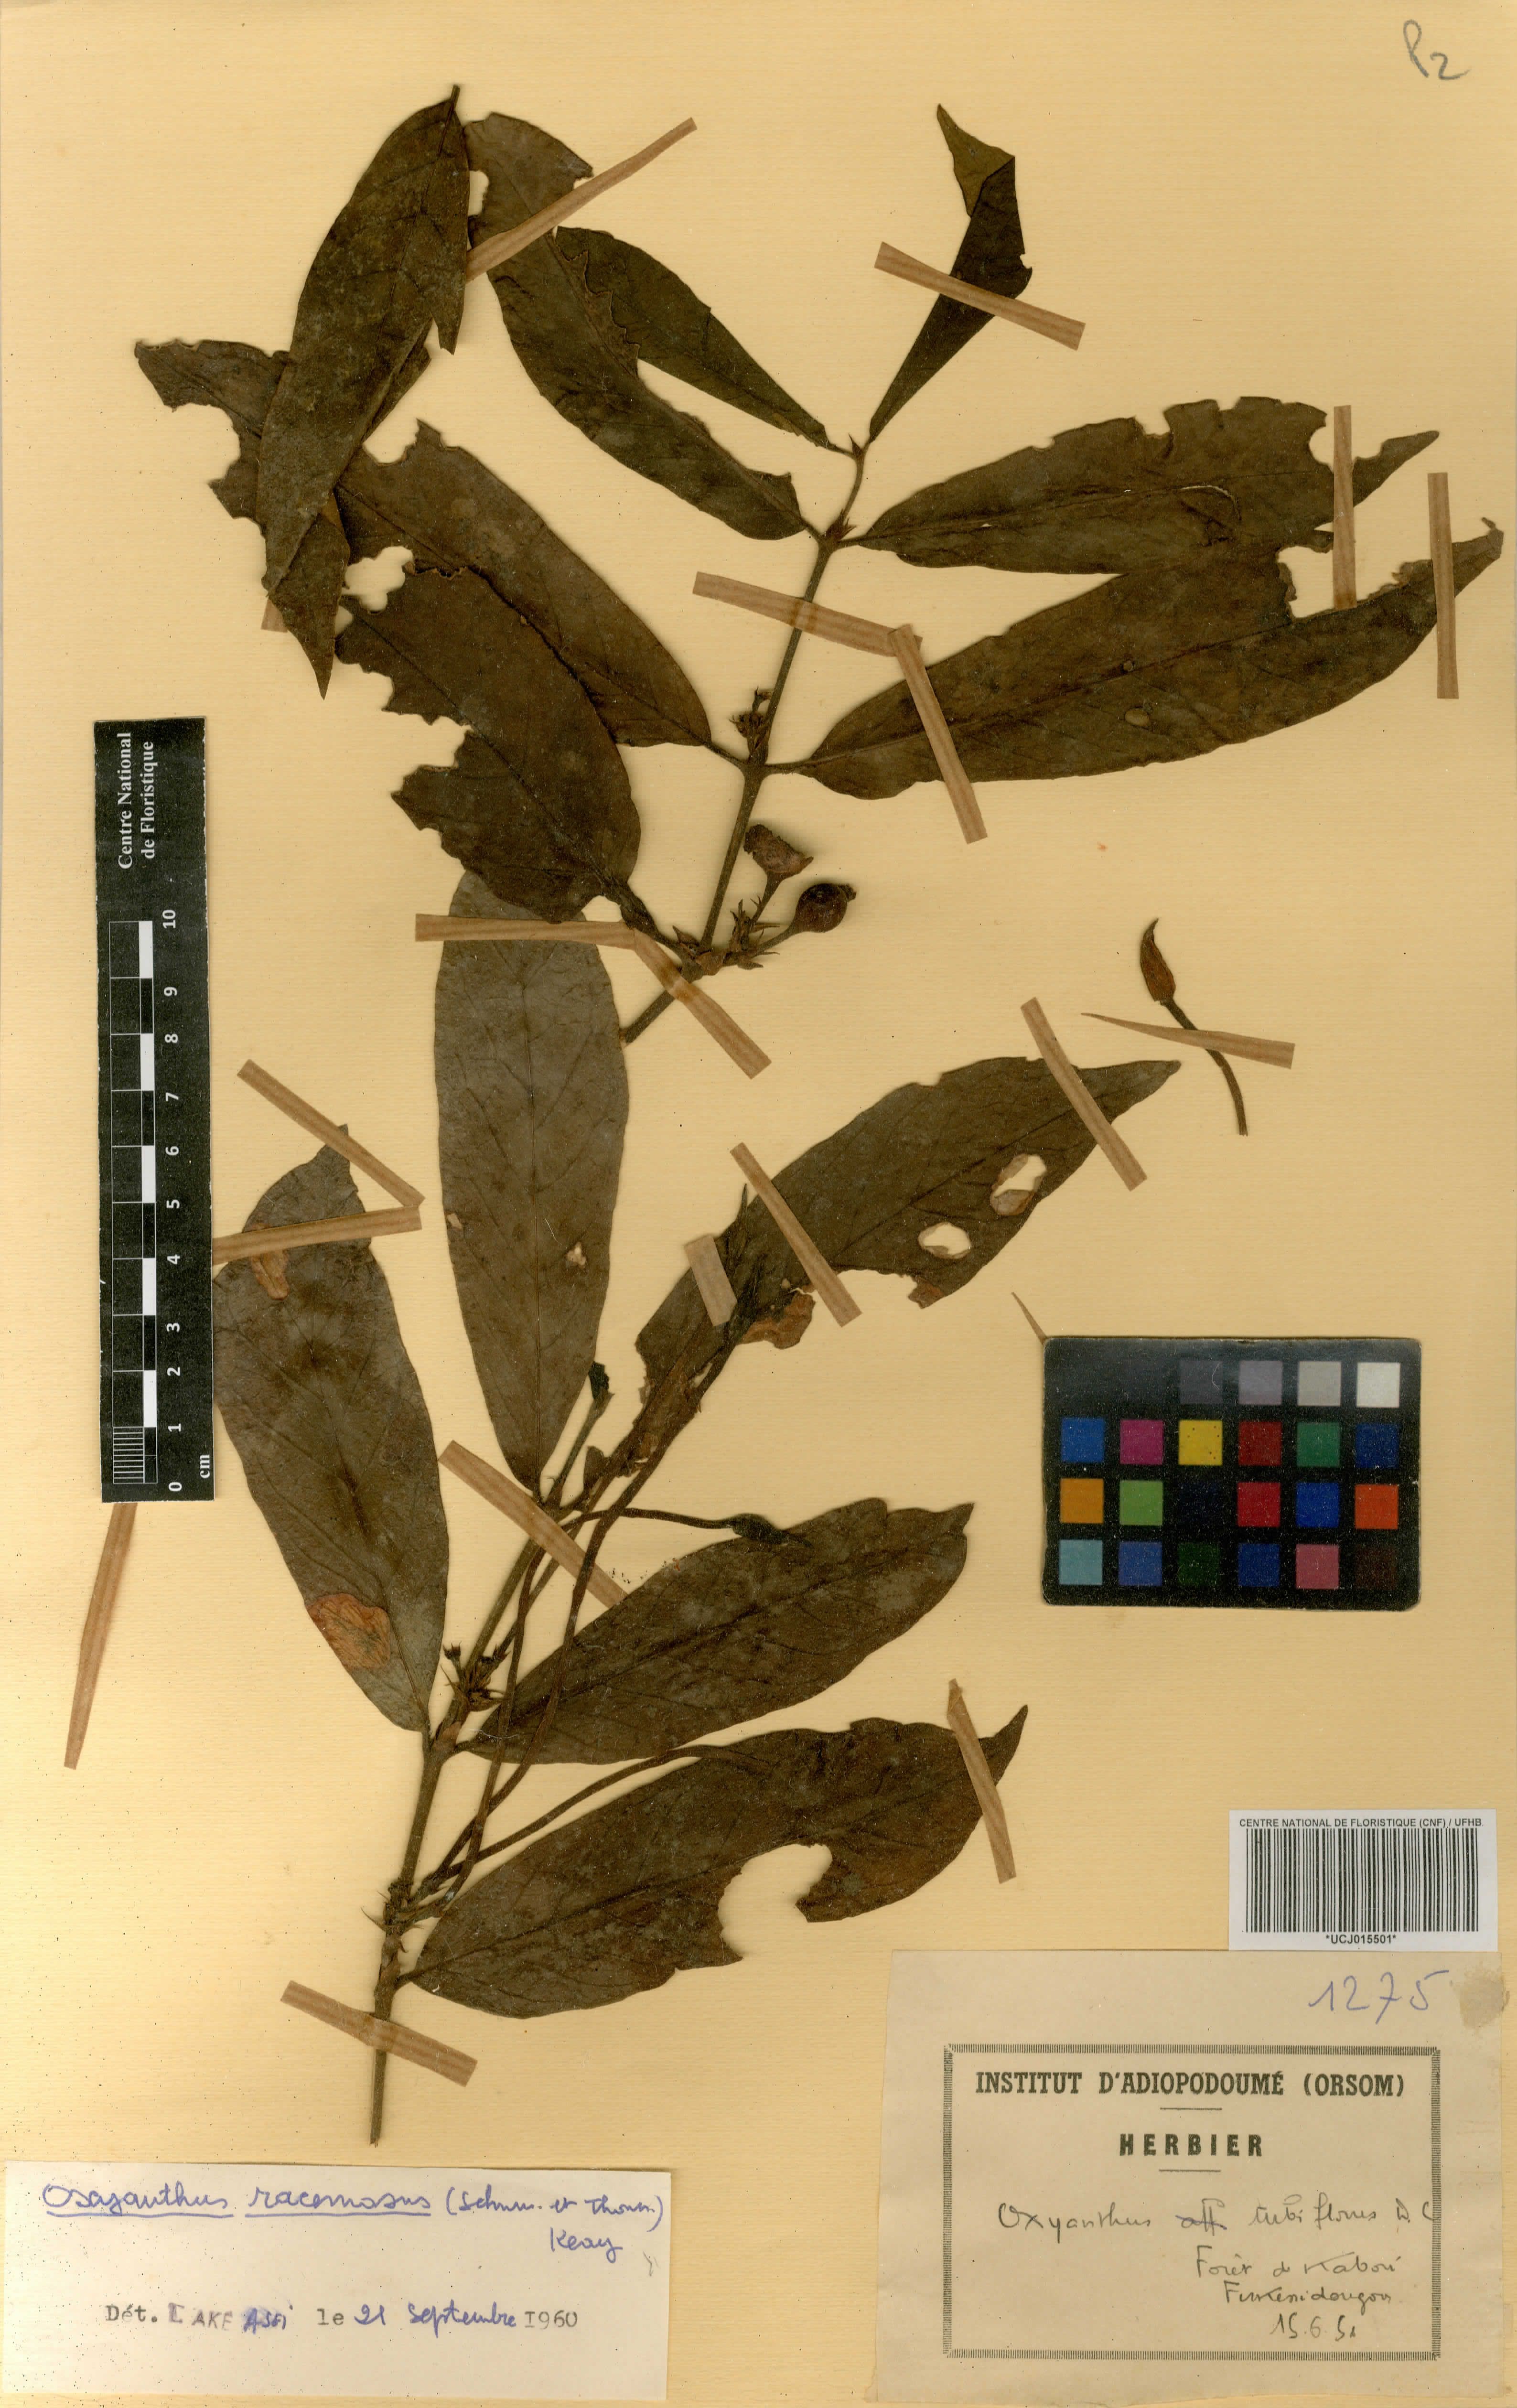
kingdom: Plantae
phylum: Tracheophyta
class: Magnoliopsida
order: Gentianales
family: Rubiaceae
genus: Oxyanthus
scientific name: Oxyanthus racemosus
